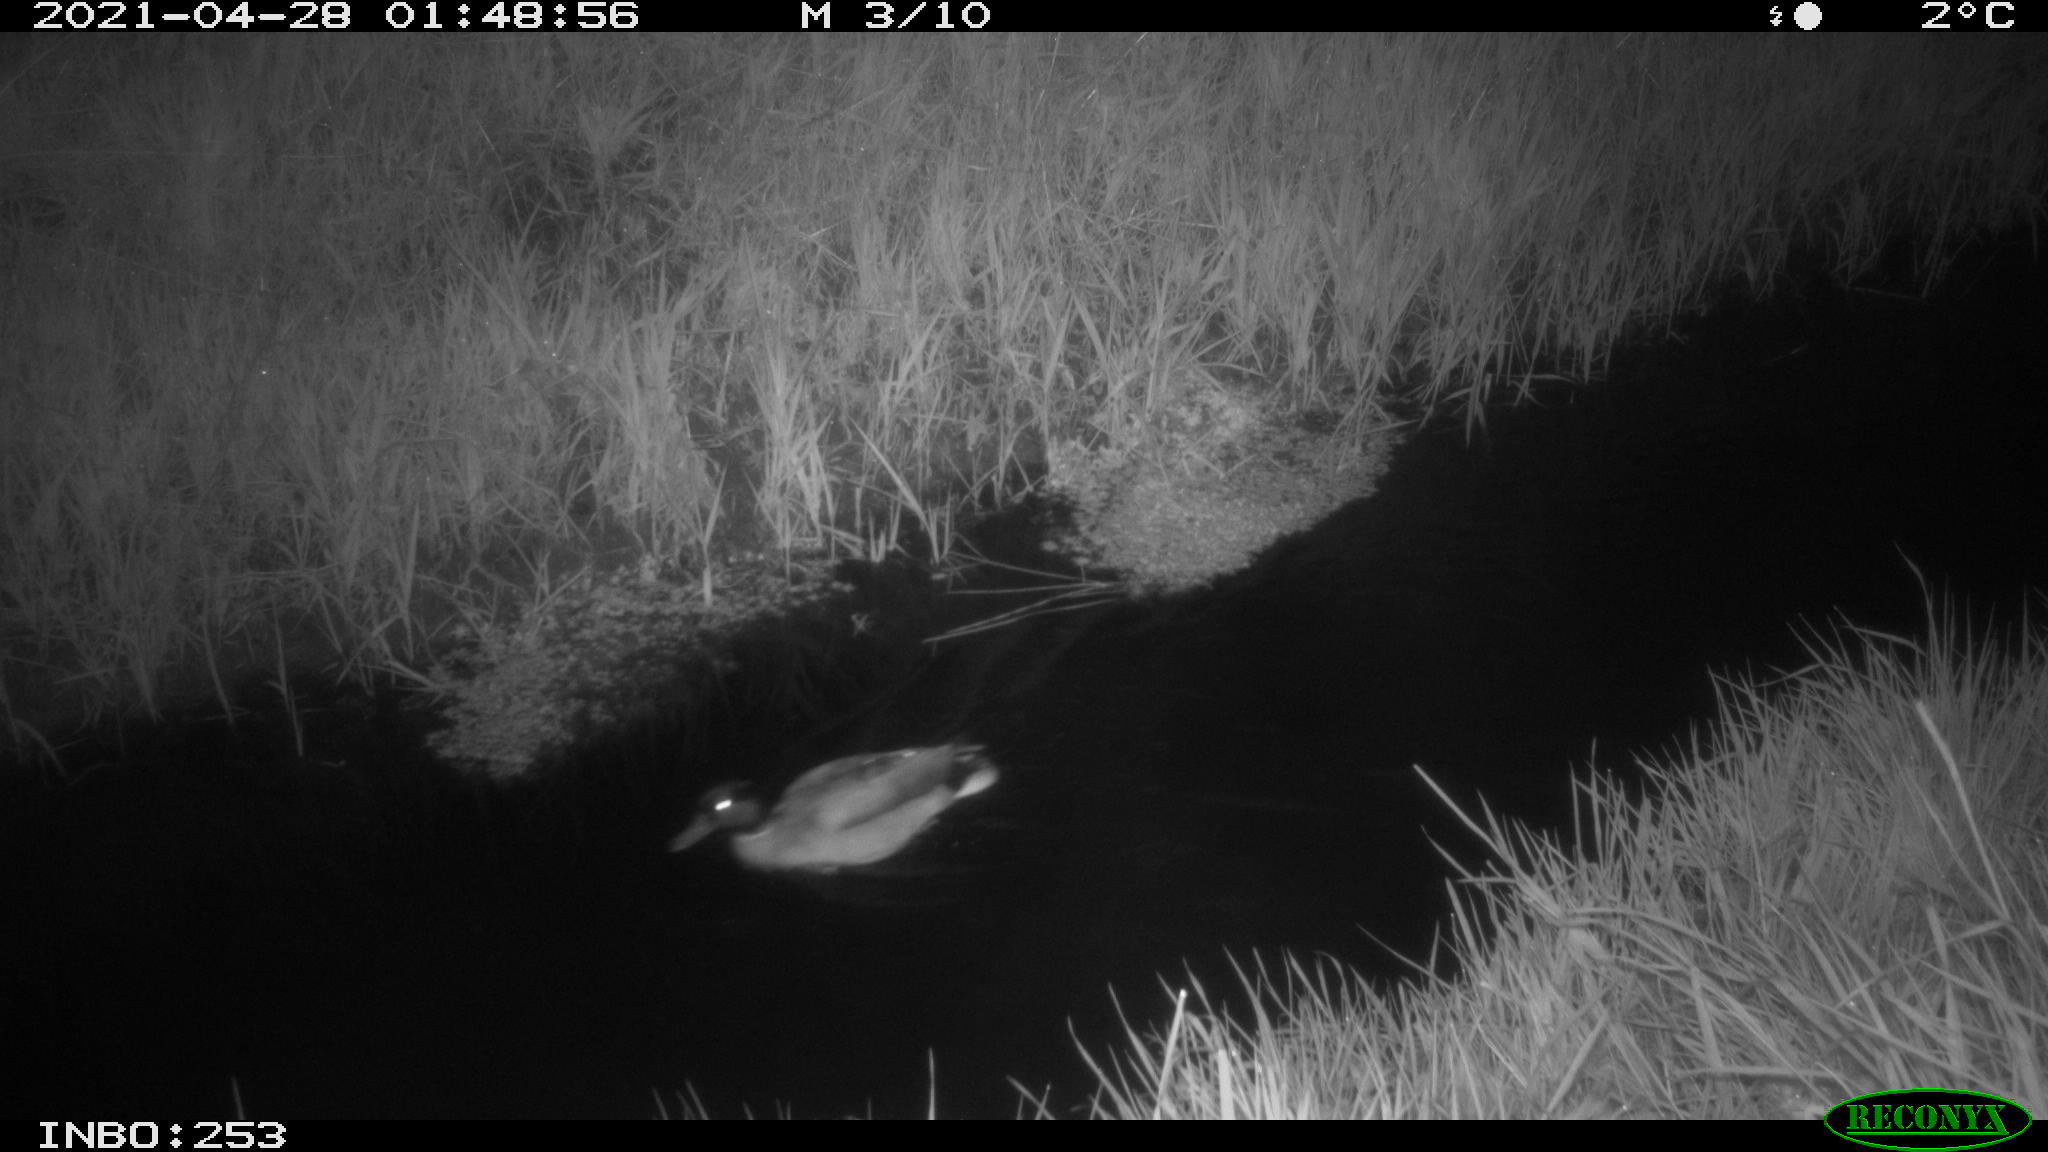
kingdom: Animalia
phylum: Chordata
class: Aves
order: Anseriformes
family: Anatidae
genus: Anas
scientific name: Anas platyrhynchos
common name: Mallard
